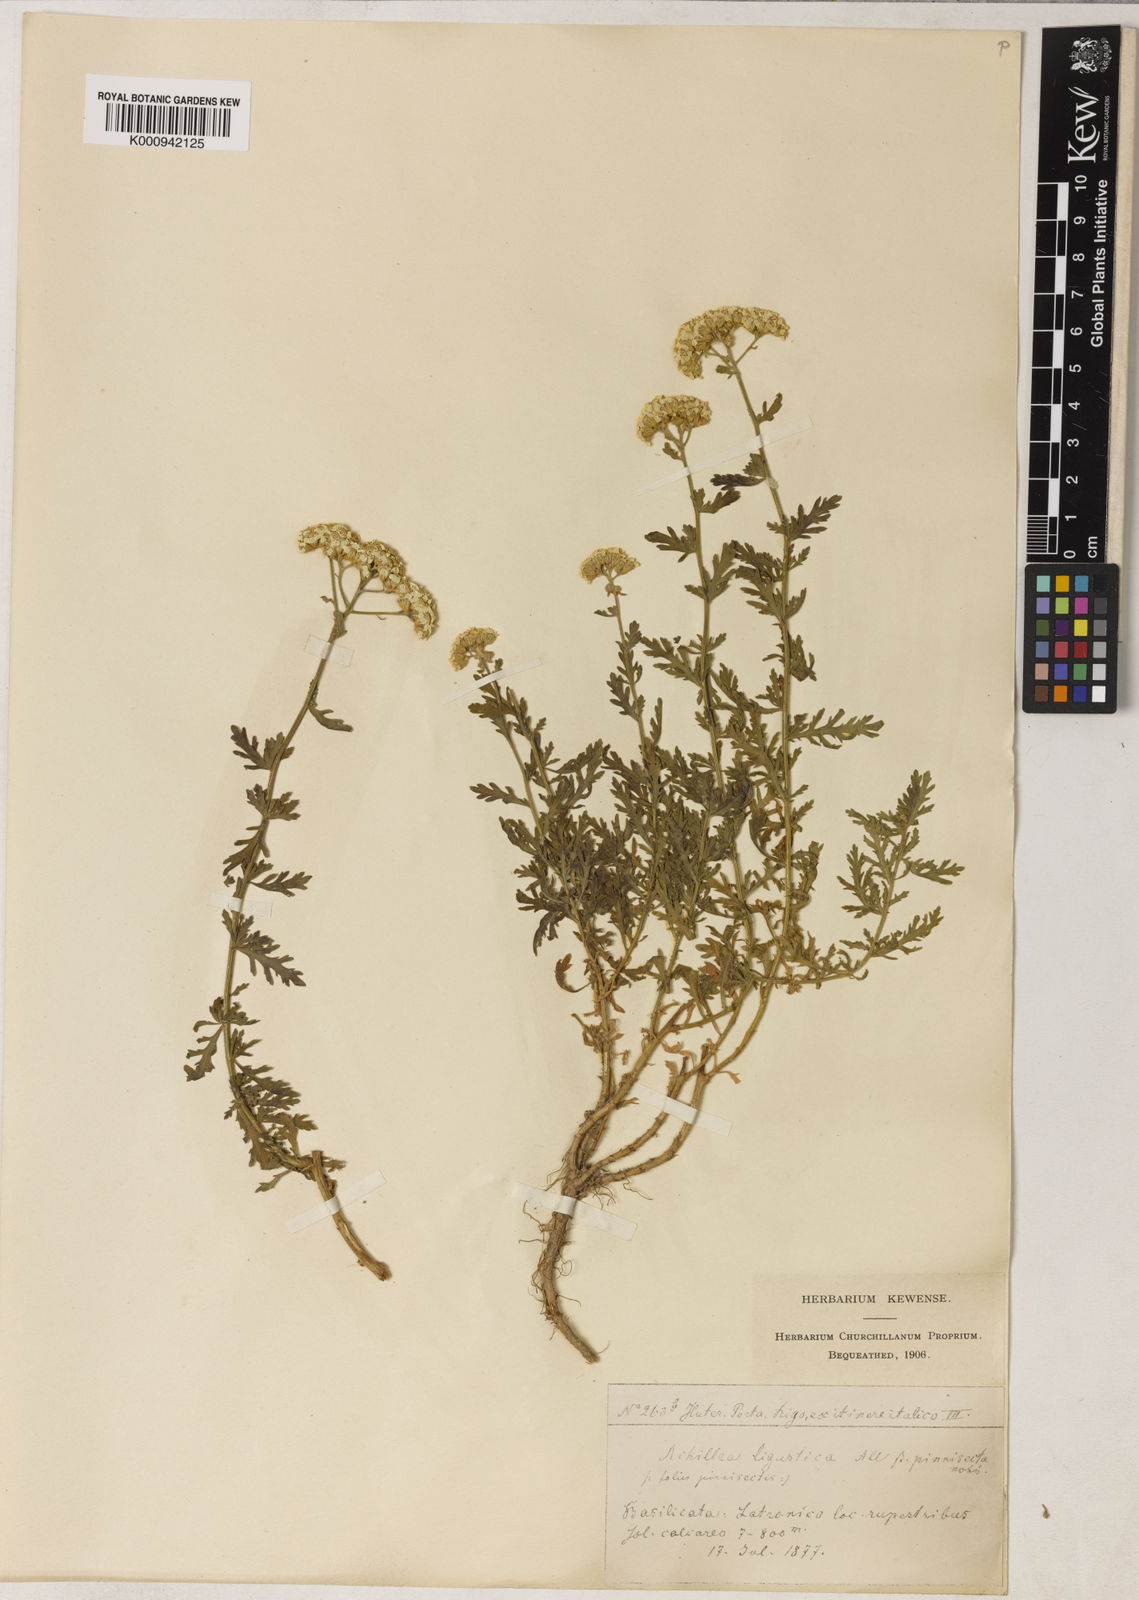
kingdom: Plantae
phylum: Tracheophyta
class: Magnoliopsida
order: Asterales
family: Asteraceae
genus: Achillea
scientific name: Achillea ligustica
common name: Southern yarrow
